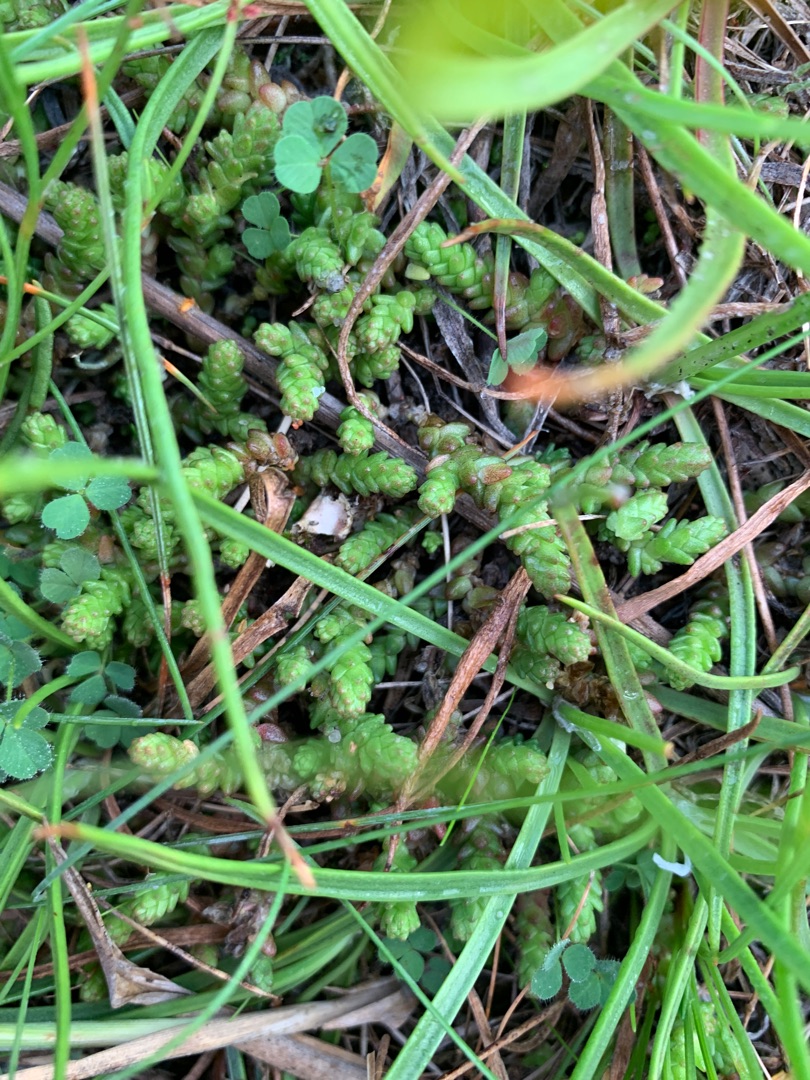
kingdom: Plantae
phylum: Tracheophyta
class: Magnoliopsida
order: Saxifragales
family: Crassulaceae
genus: Sedum
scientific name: Sedum acre
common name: Bidende stenurt
